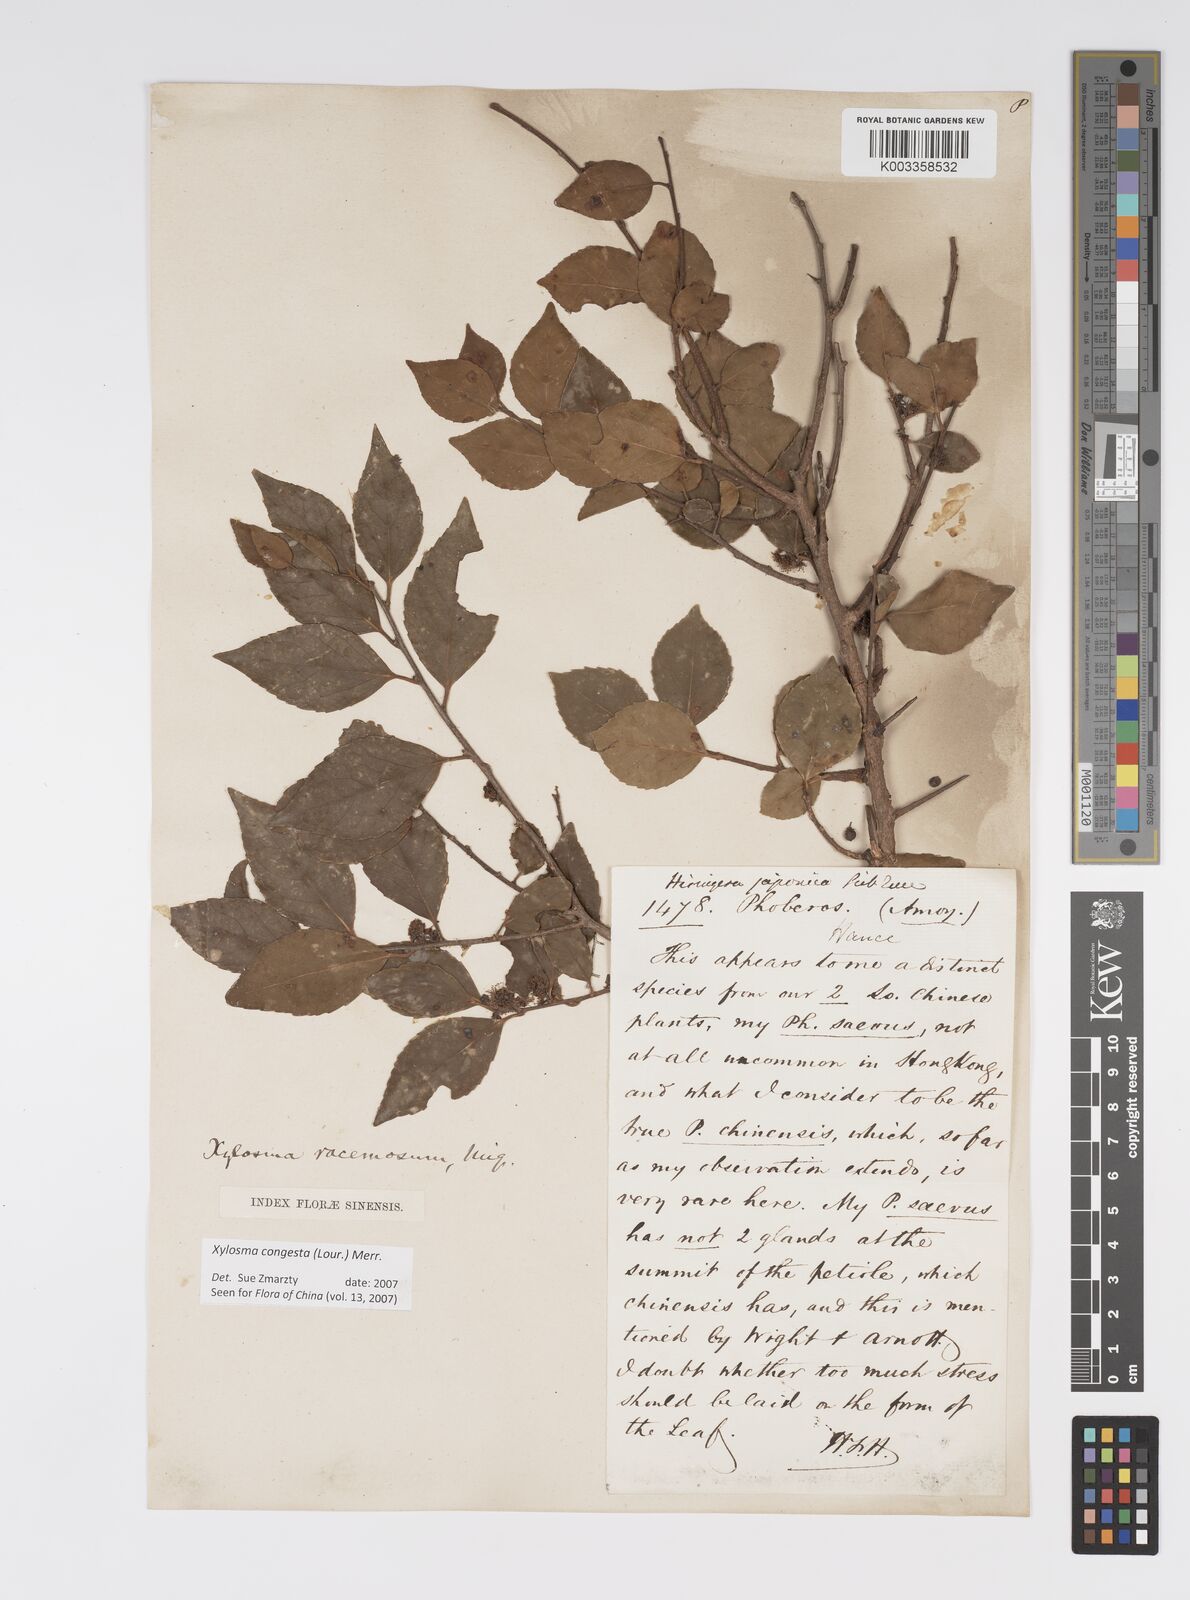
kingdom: Plantae
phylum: Tracheophyta
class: Magnoliopsida
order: Malpighiales
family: Salicaceae
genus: Xylosma
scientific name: Xylosma racemosum
